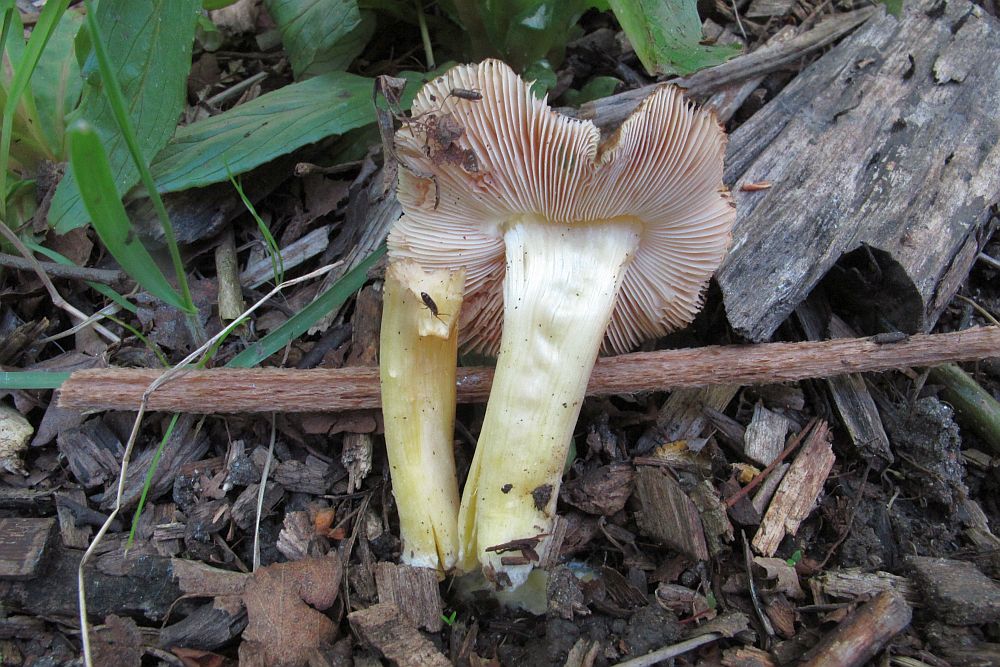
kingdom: Fungi
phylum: Basidiomycota
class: Agaricomycetes
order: Agaricales
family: Pluteaceae
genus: Pluteus
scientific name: Pluteus romellii
